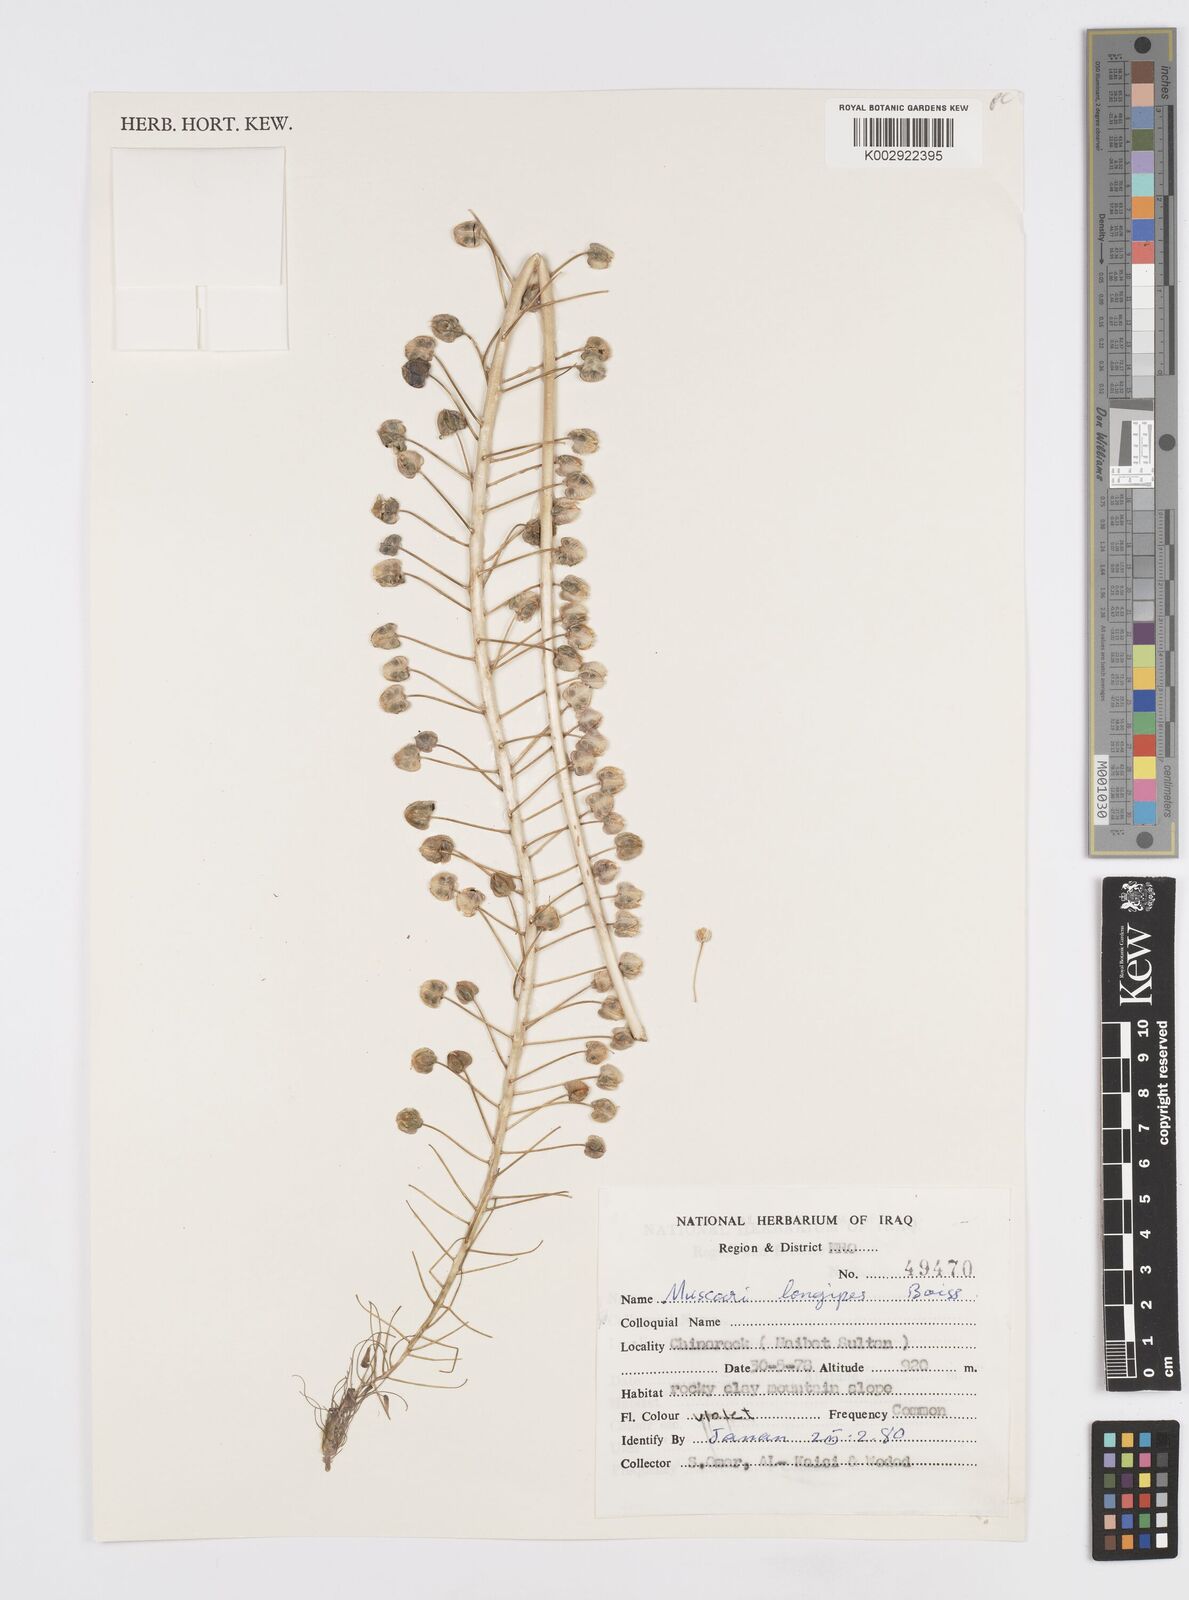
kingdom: Plantae
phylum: Tracheophyta
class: Liliopsida
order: Asparagales
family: Asparagaceae
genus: Muscari
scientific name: Muscari longipes
